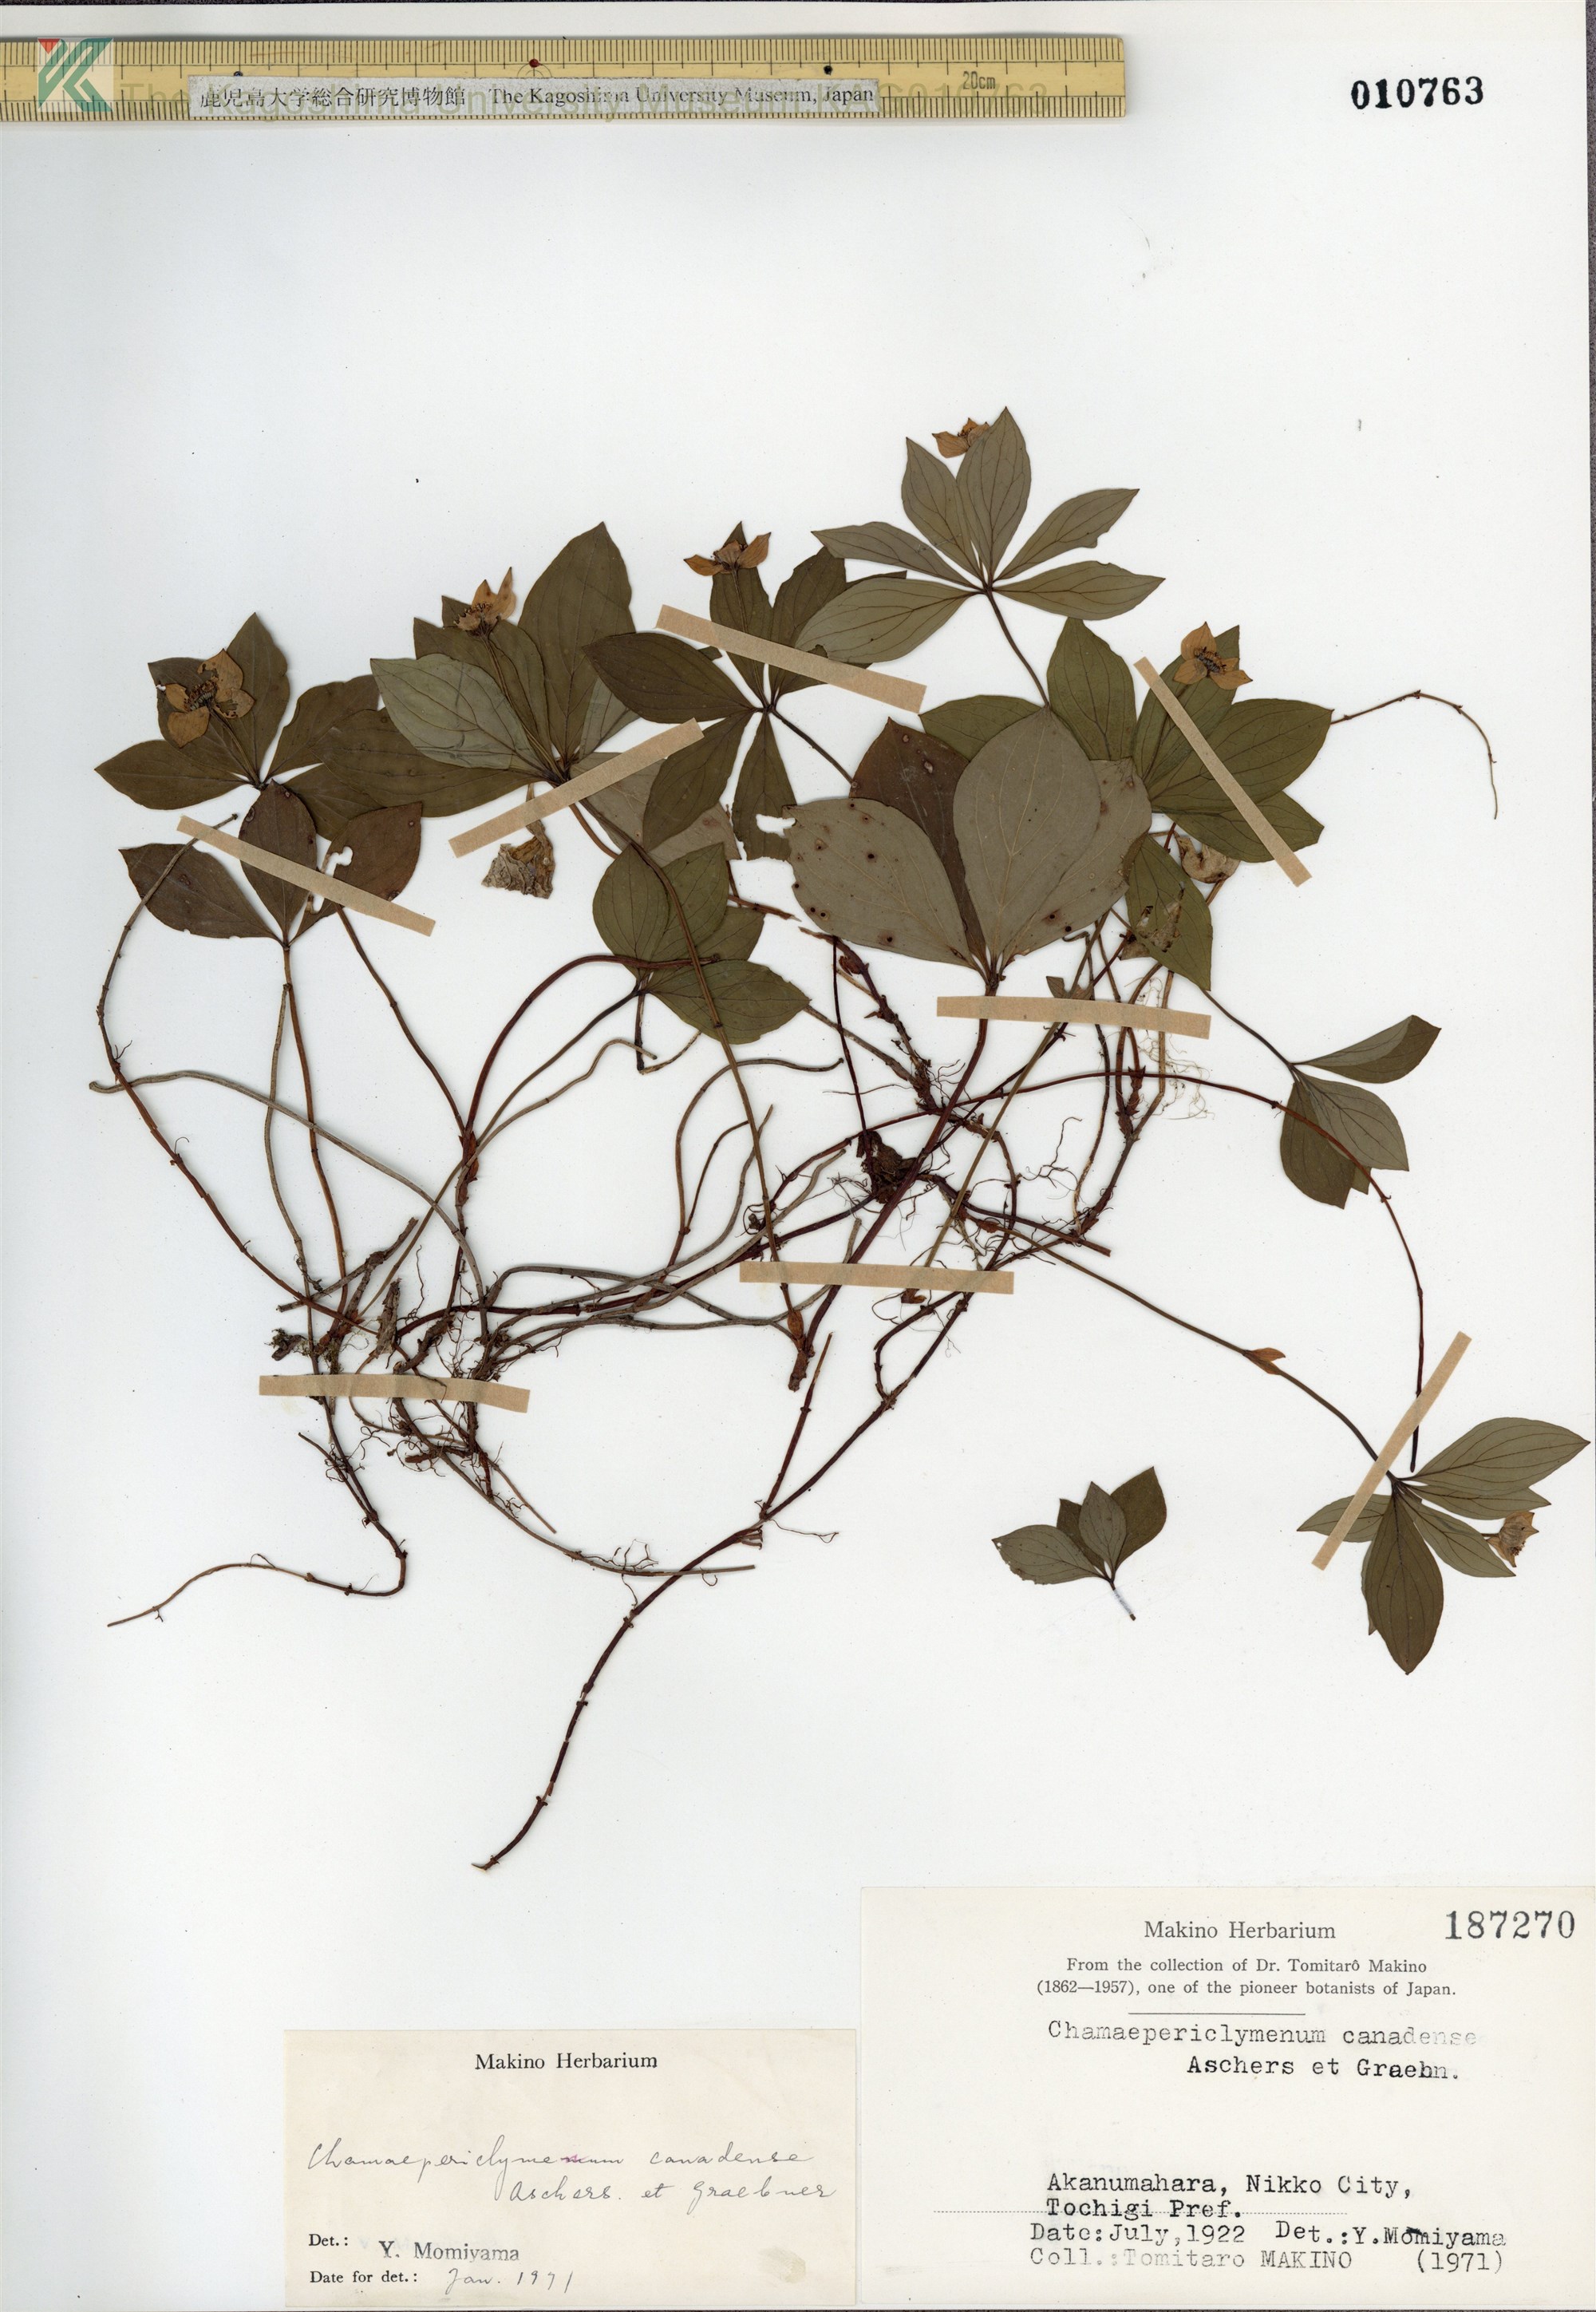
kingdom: Plantae
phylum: Tracheophyta
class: Magnoliopsida
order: Cornales
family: Cornaceae
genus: Cornus
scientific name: Cornus canadensis
